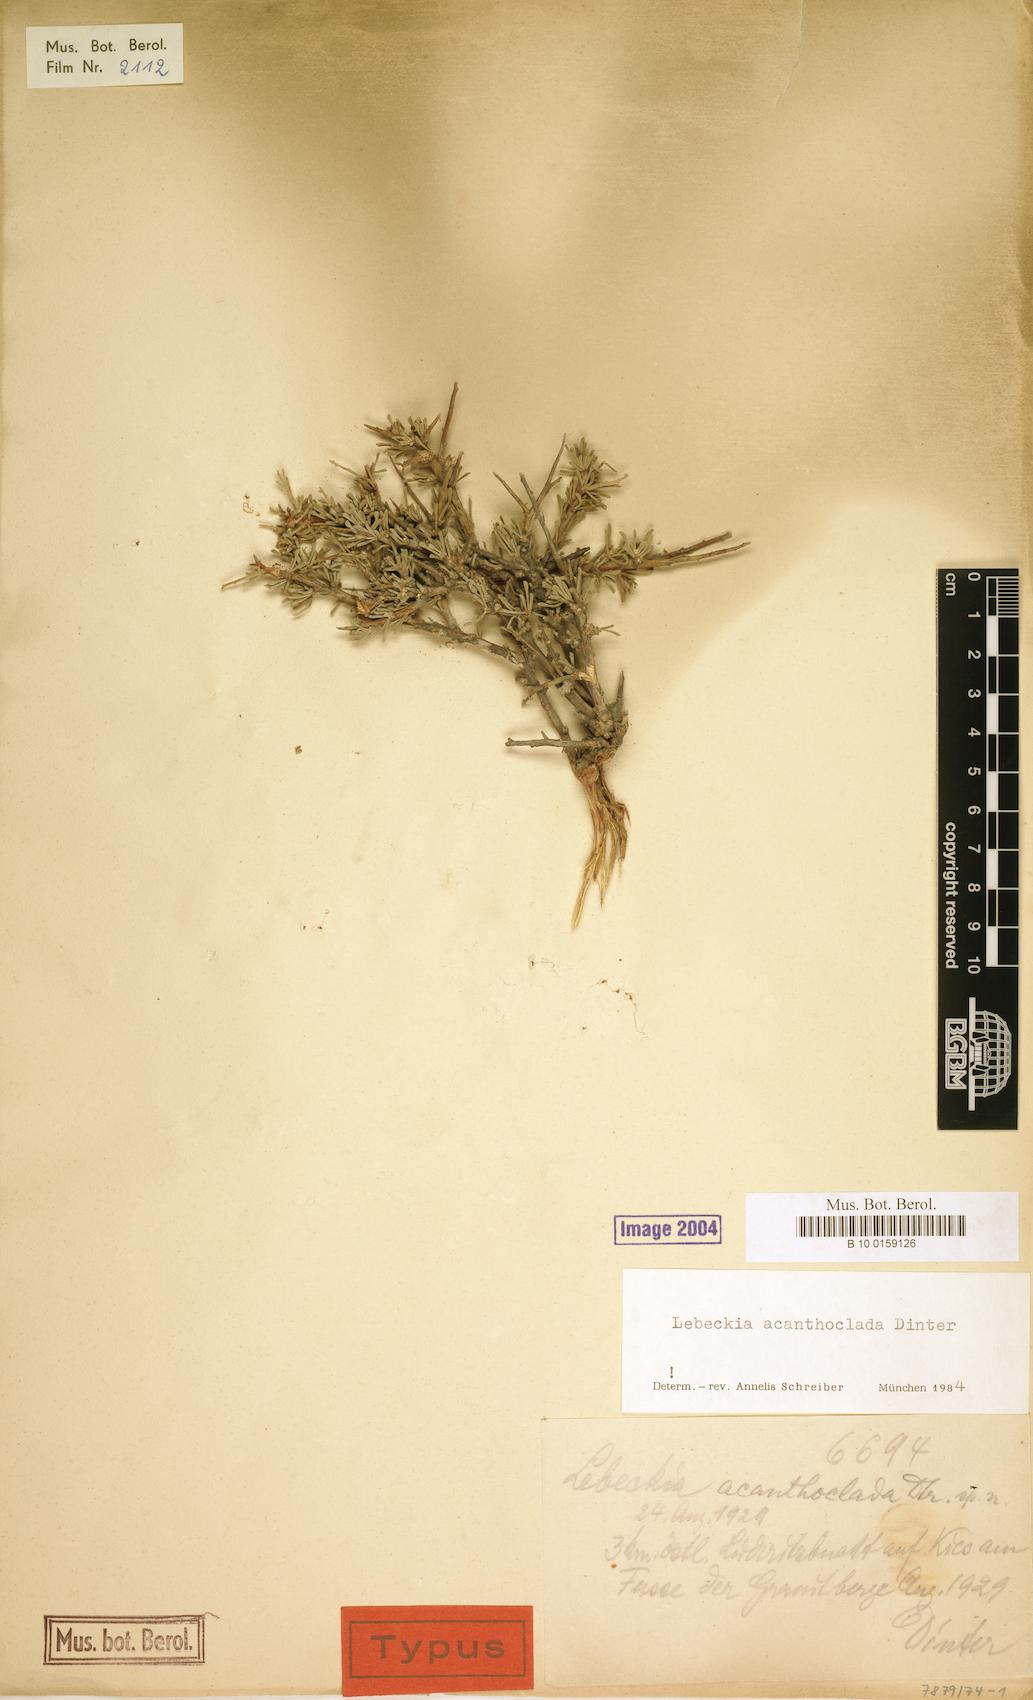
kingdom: Plantae
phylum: Tracheophyta
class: Magnoliopsida
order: Fabales
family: Fabaceae
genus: Calobota
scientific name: Calobota acanthoclada
